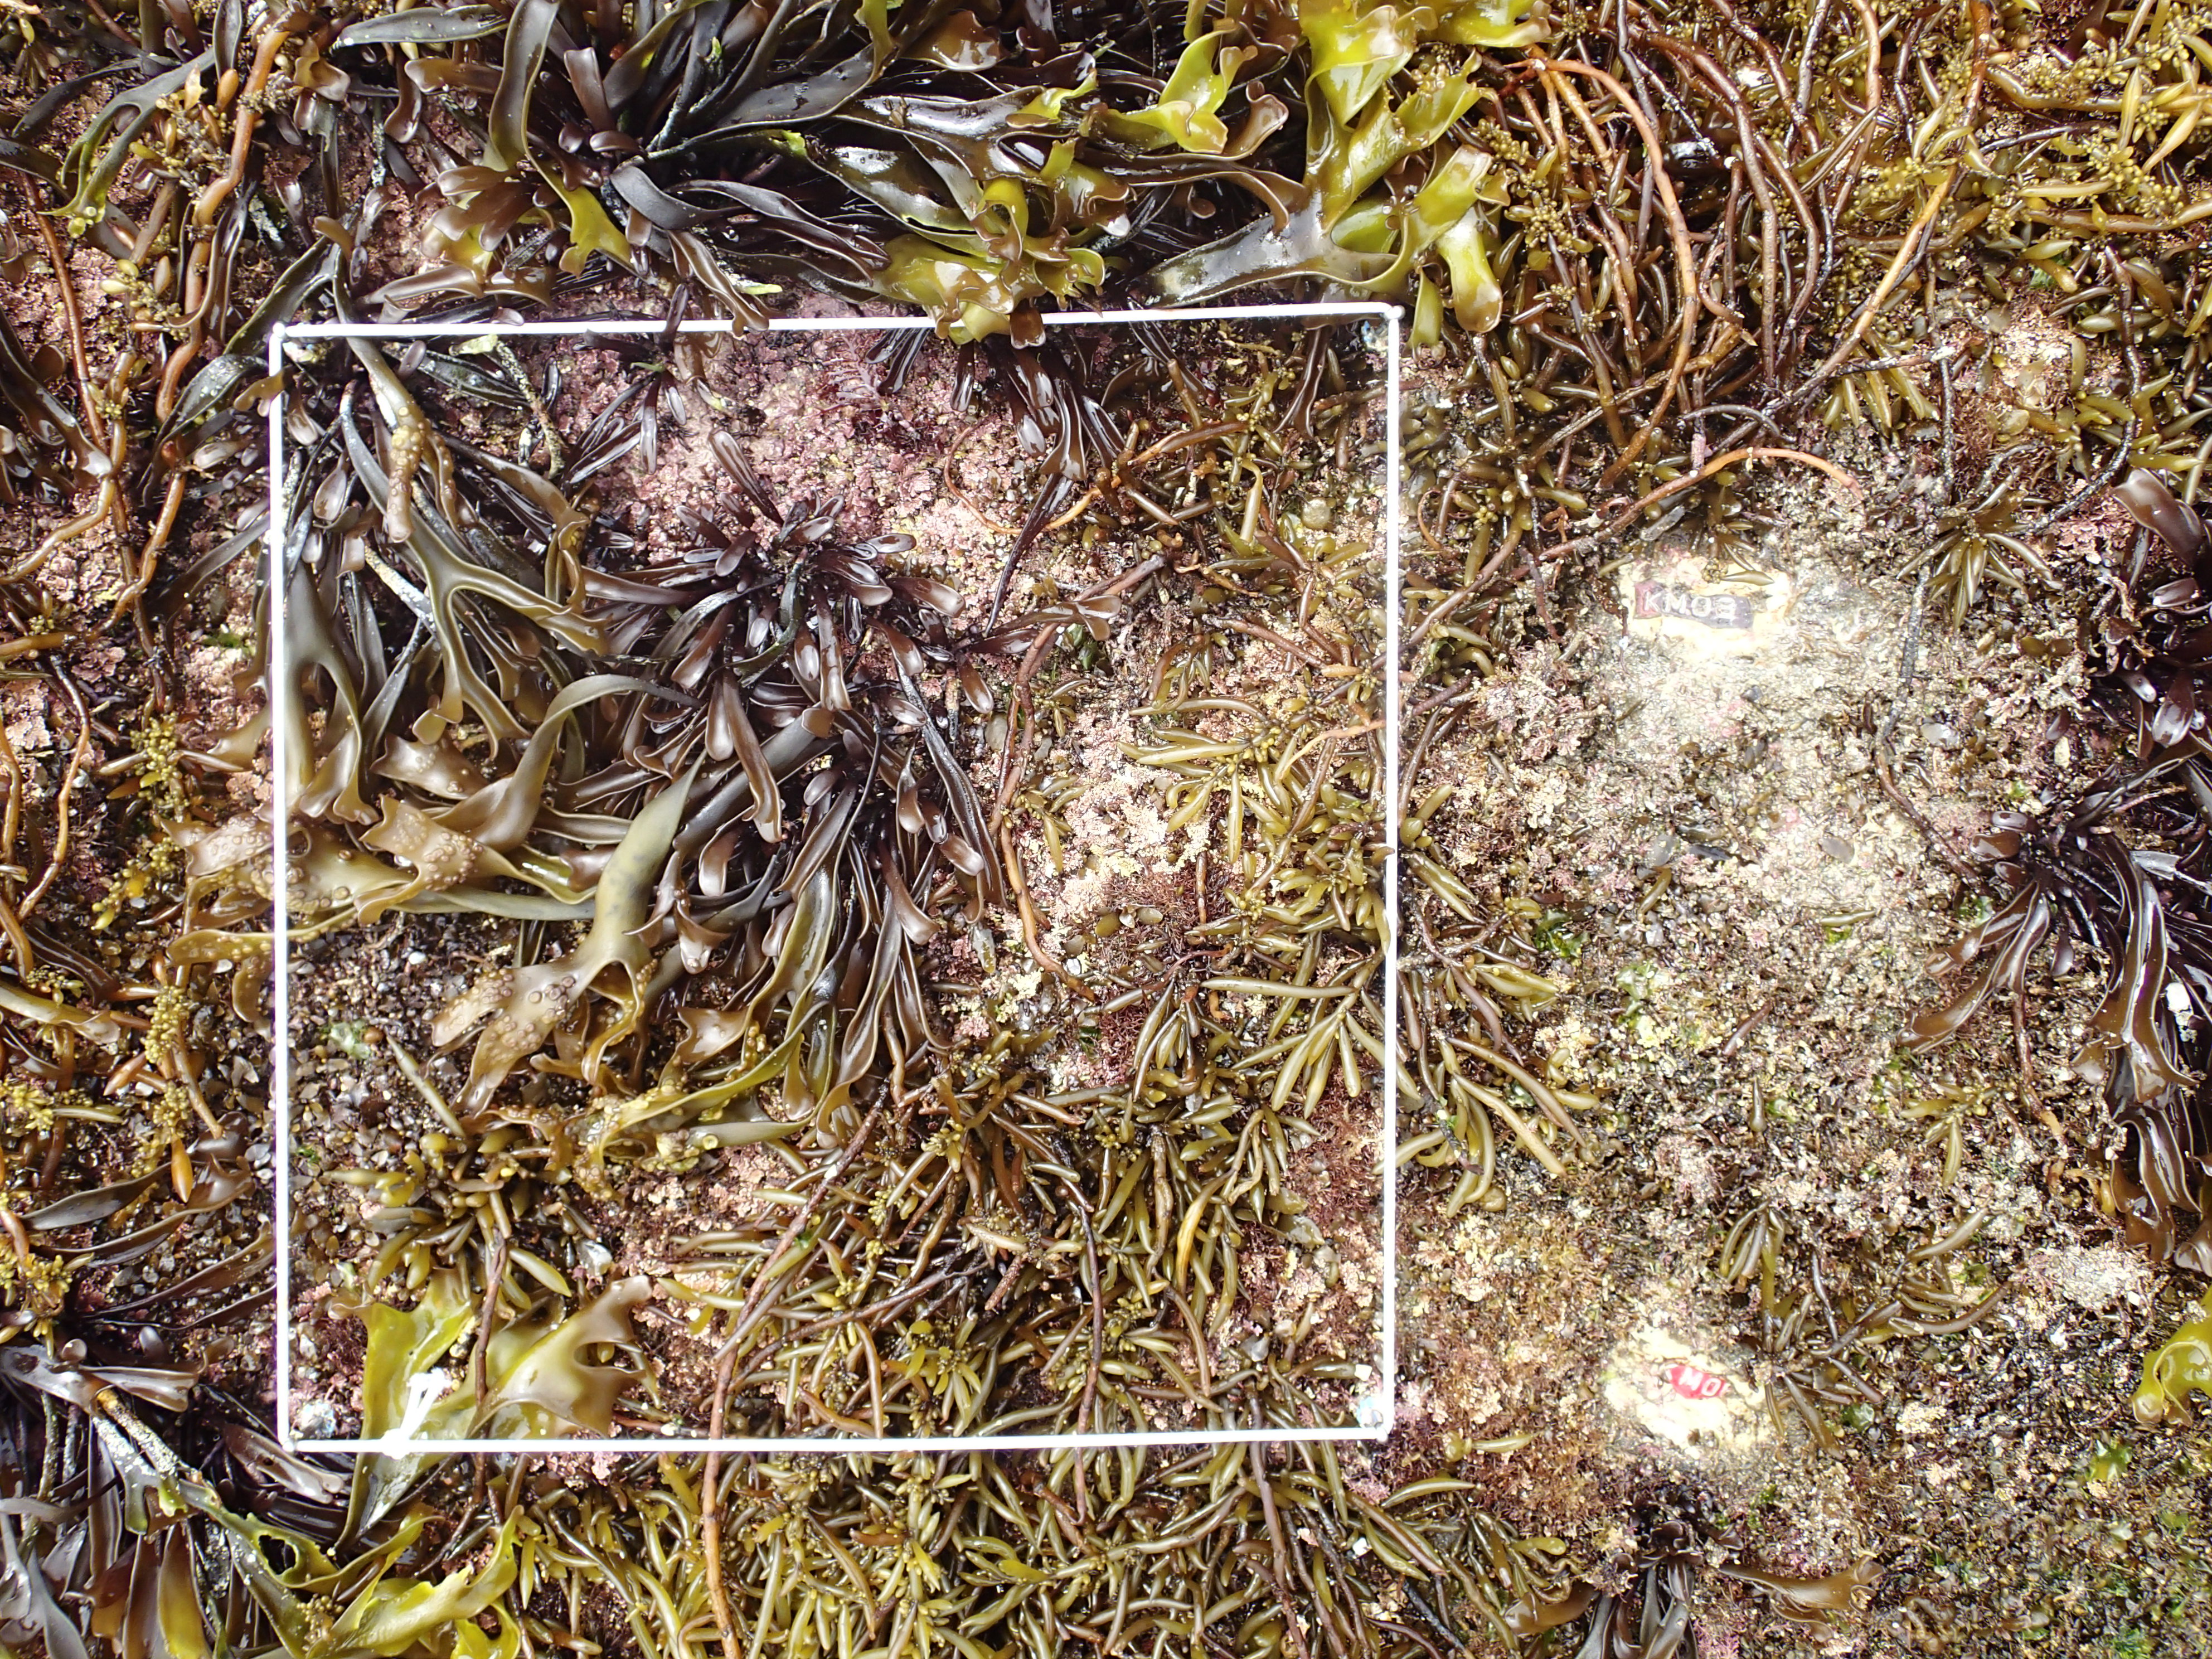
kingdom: Chromista
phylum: Ochrophyta
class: Phaeophyceae
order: Fucales
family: Sargassaceae
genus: Sargassum
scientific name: Sargassum fusiforme
